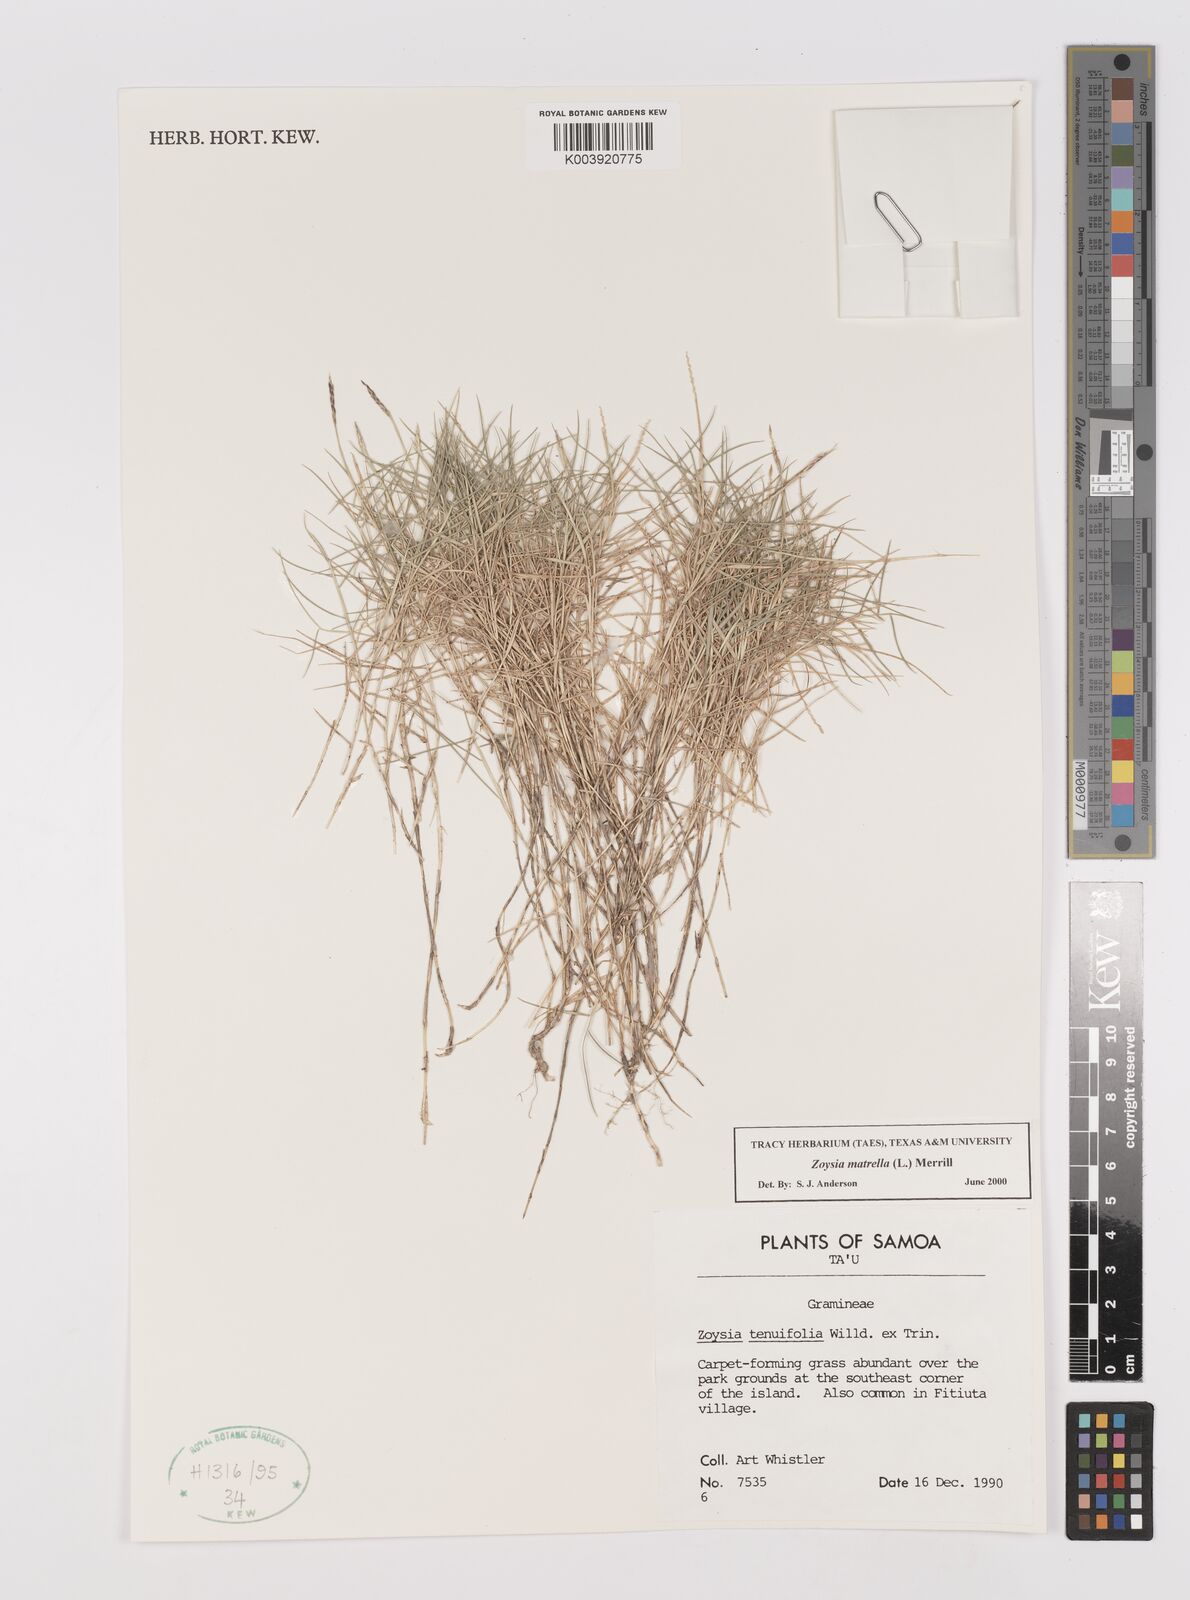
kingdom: Plantae
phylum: Tracheophyta
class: Liliopsida
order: Poales
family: Poaceae
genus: Zoysia
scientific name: Zoysia matrella
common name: Manila grass
